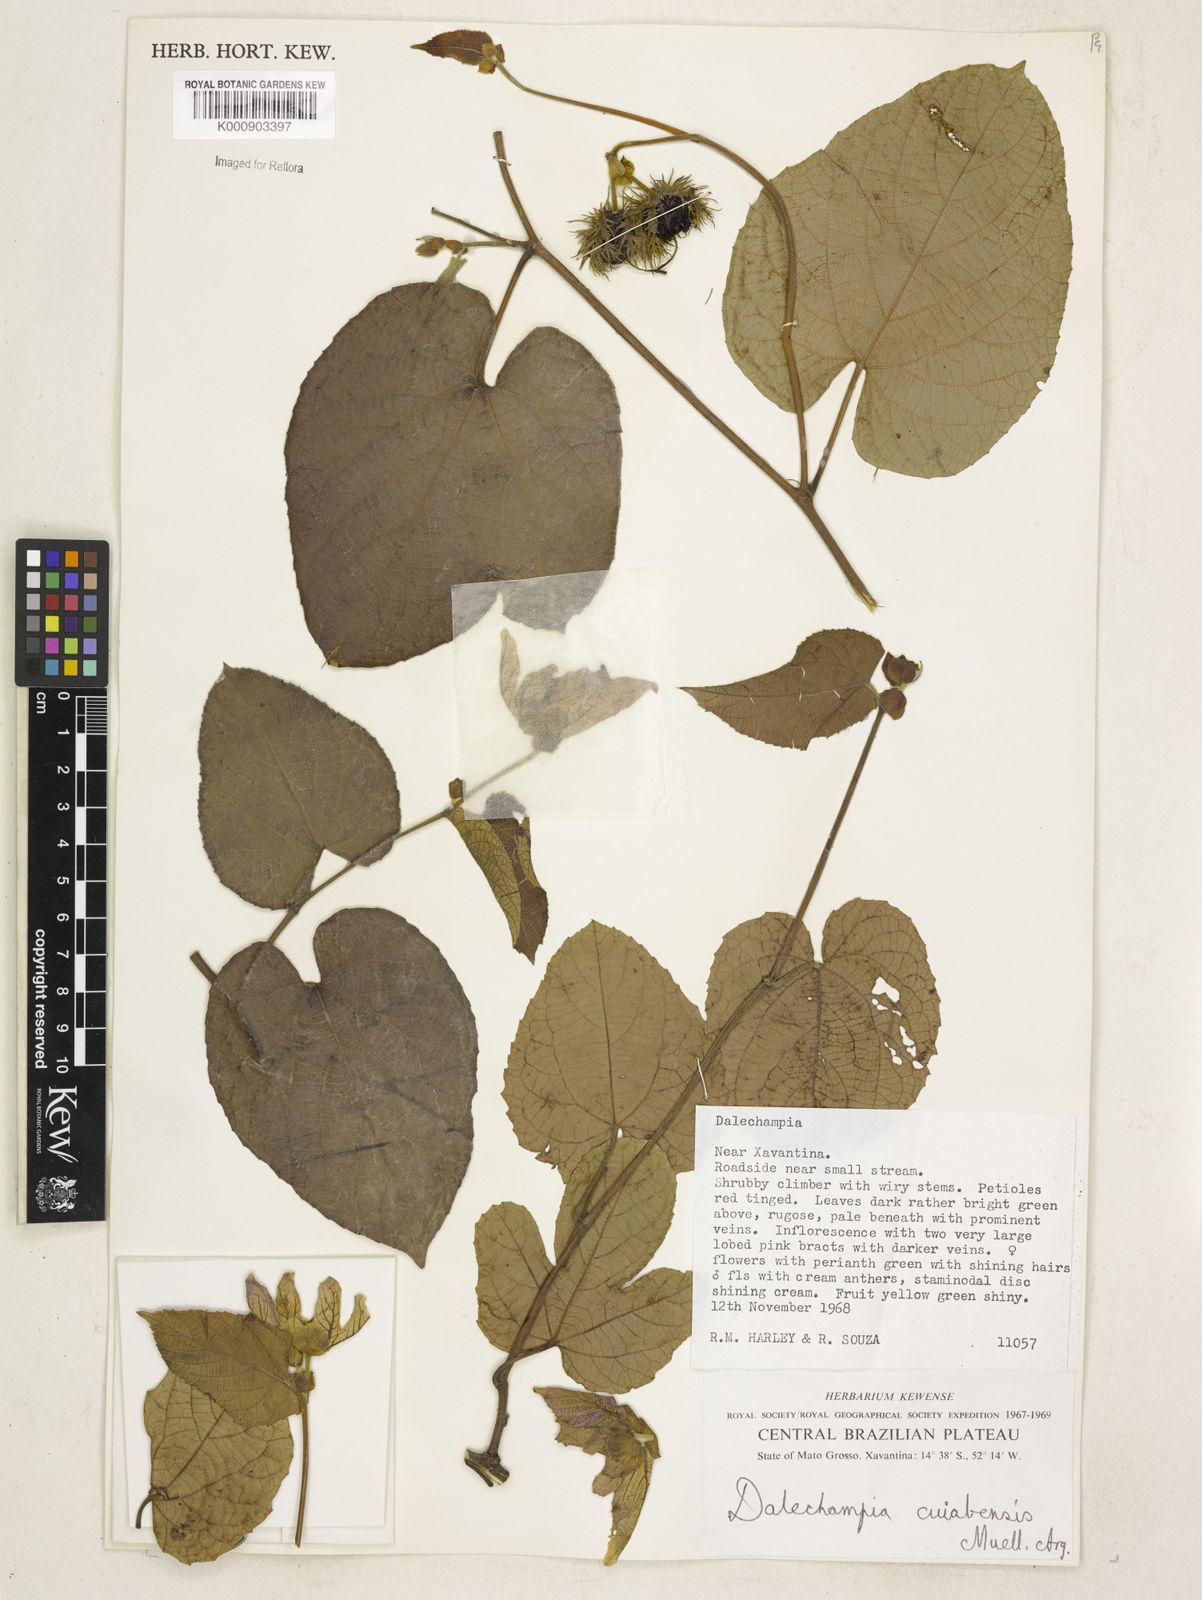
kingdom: Plantae
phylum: Tracheophyta
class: Magnoliopsida
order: Malpighiales
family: Euphorbiaceae
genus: Dalechampia
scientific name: Dalechampia
